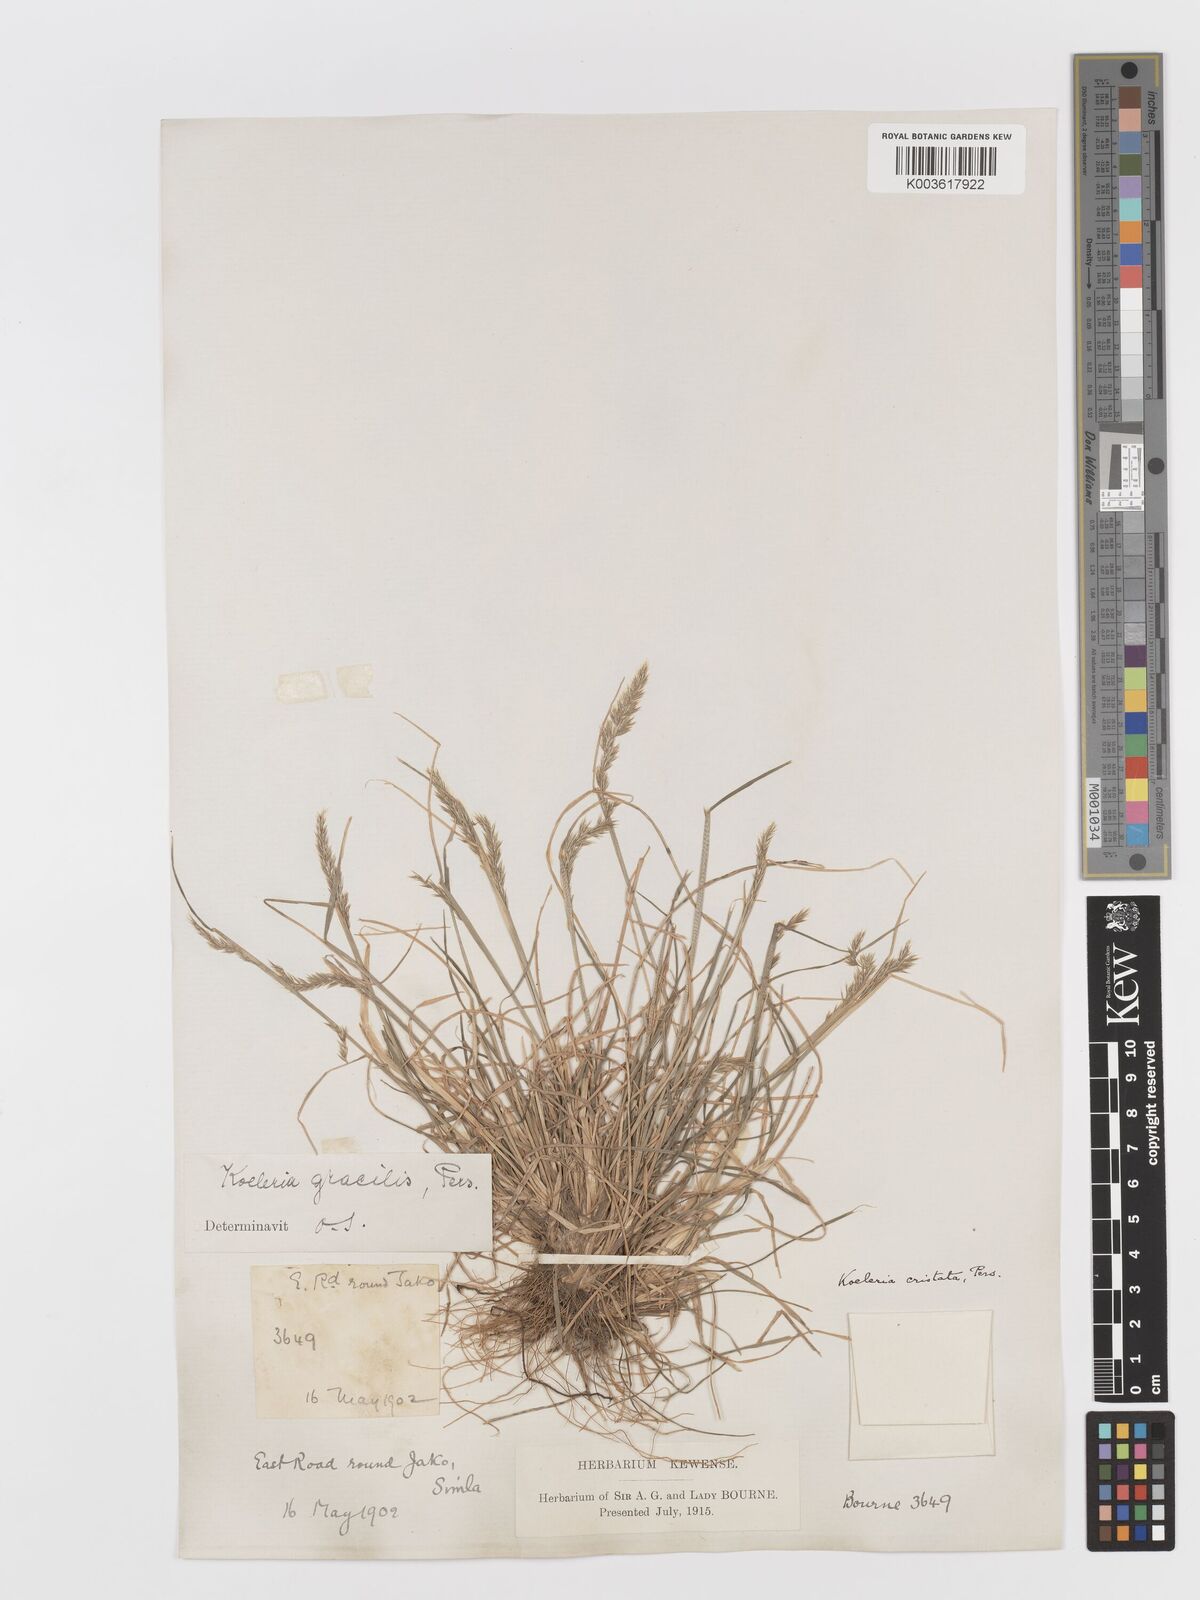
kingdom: Plantae
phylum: Tracheophyta
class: Liliopsida
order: Poales
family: Poaceae
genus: Koeleria
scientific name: Koeleria
